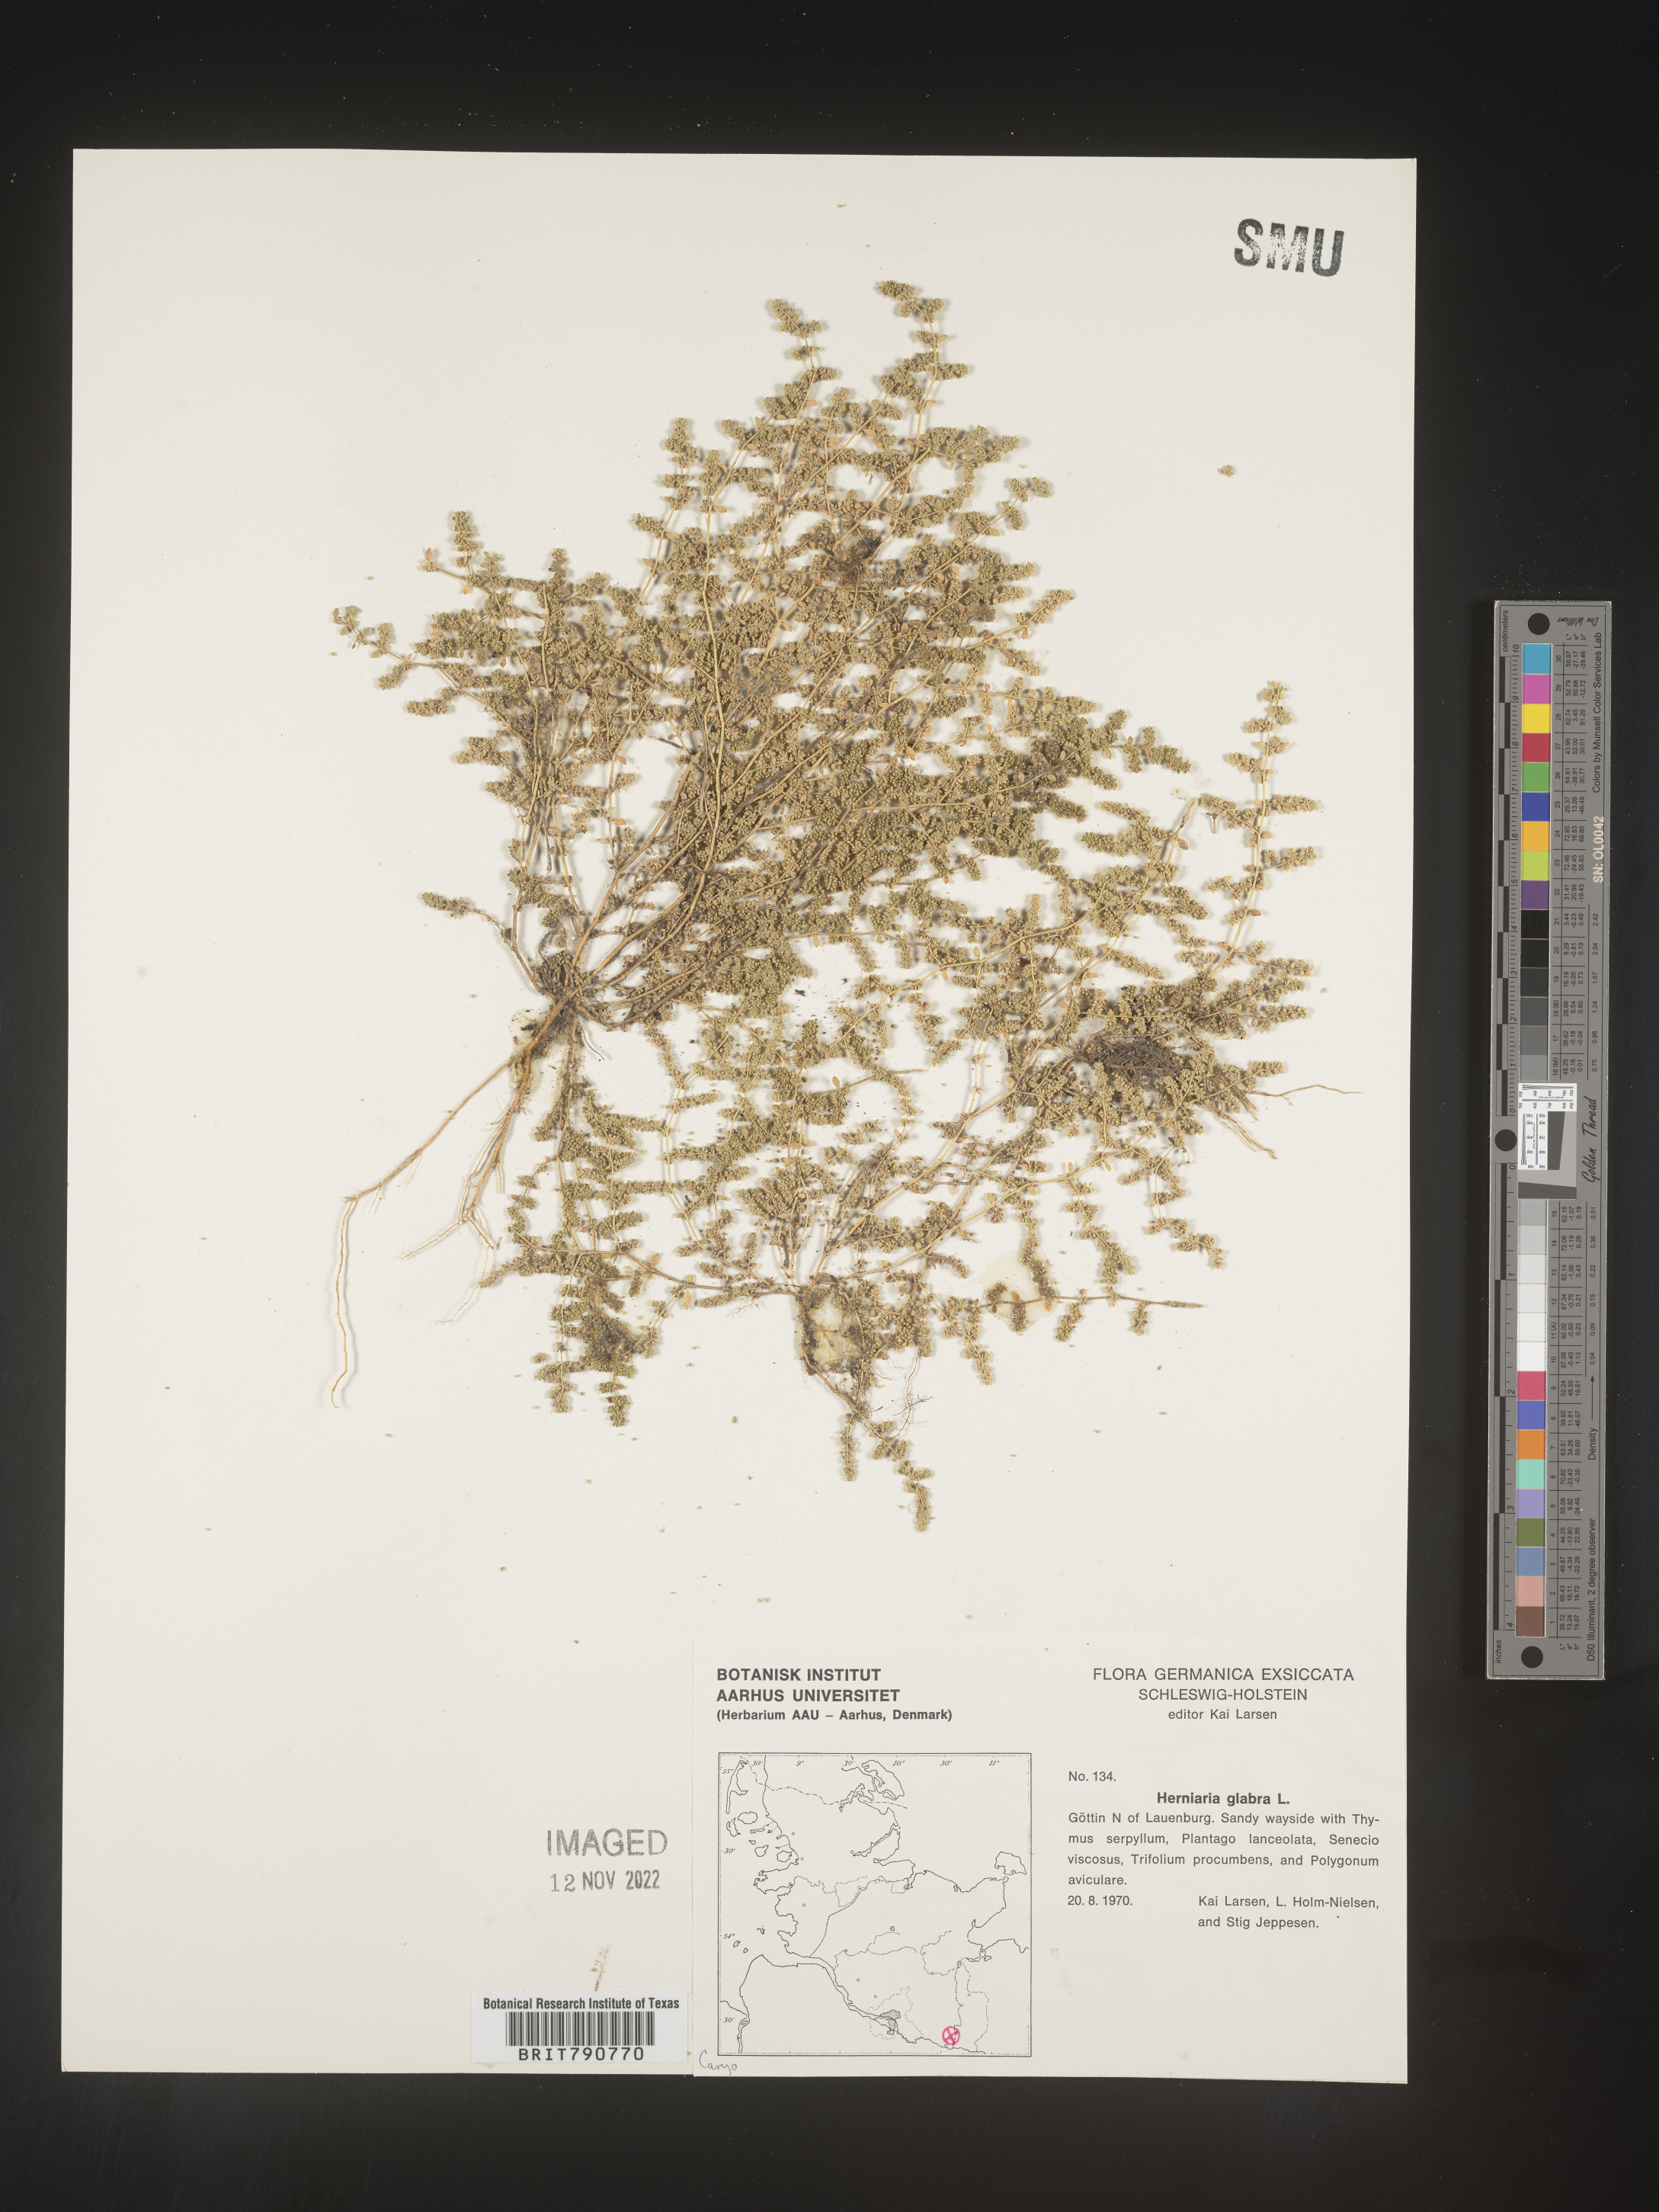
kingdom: Plantae
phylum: Tracheophyta
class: Magnoliopsida
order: Caryophyllales
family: Caryophyllaceae
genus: Herniaria
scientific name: Herniaria
